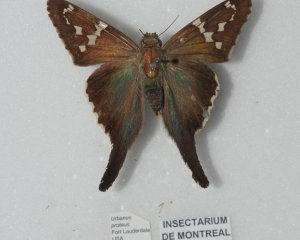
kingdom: Animalia
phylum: Arthropoda
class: Insecta
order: Lepidoptera
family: Hesperiidae
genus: Urbanus
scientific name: Urbanus proteus
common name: Long-tailed Skipper
